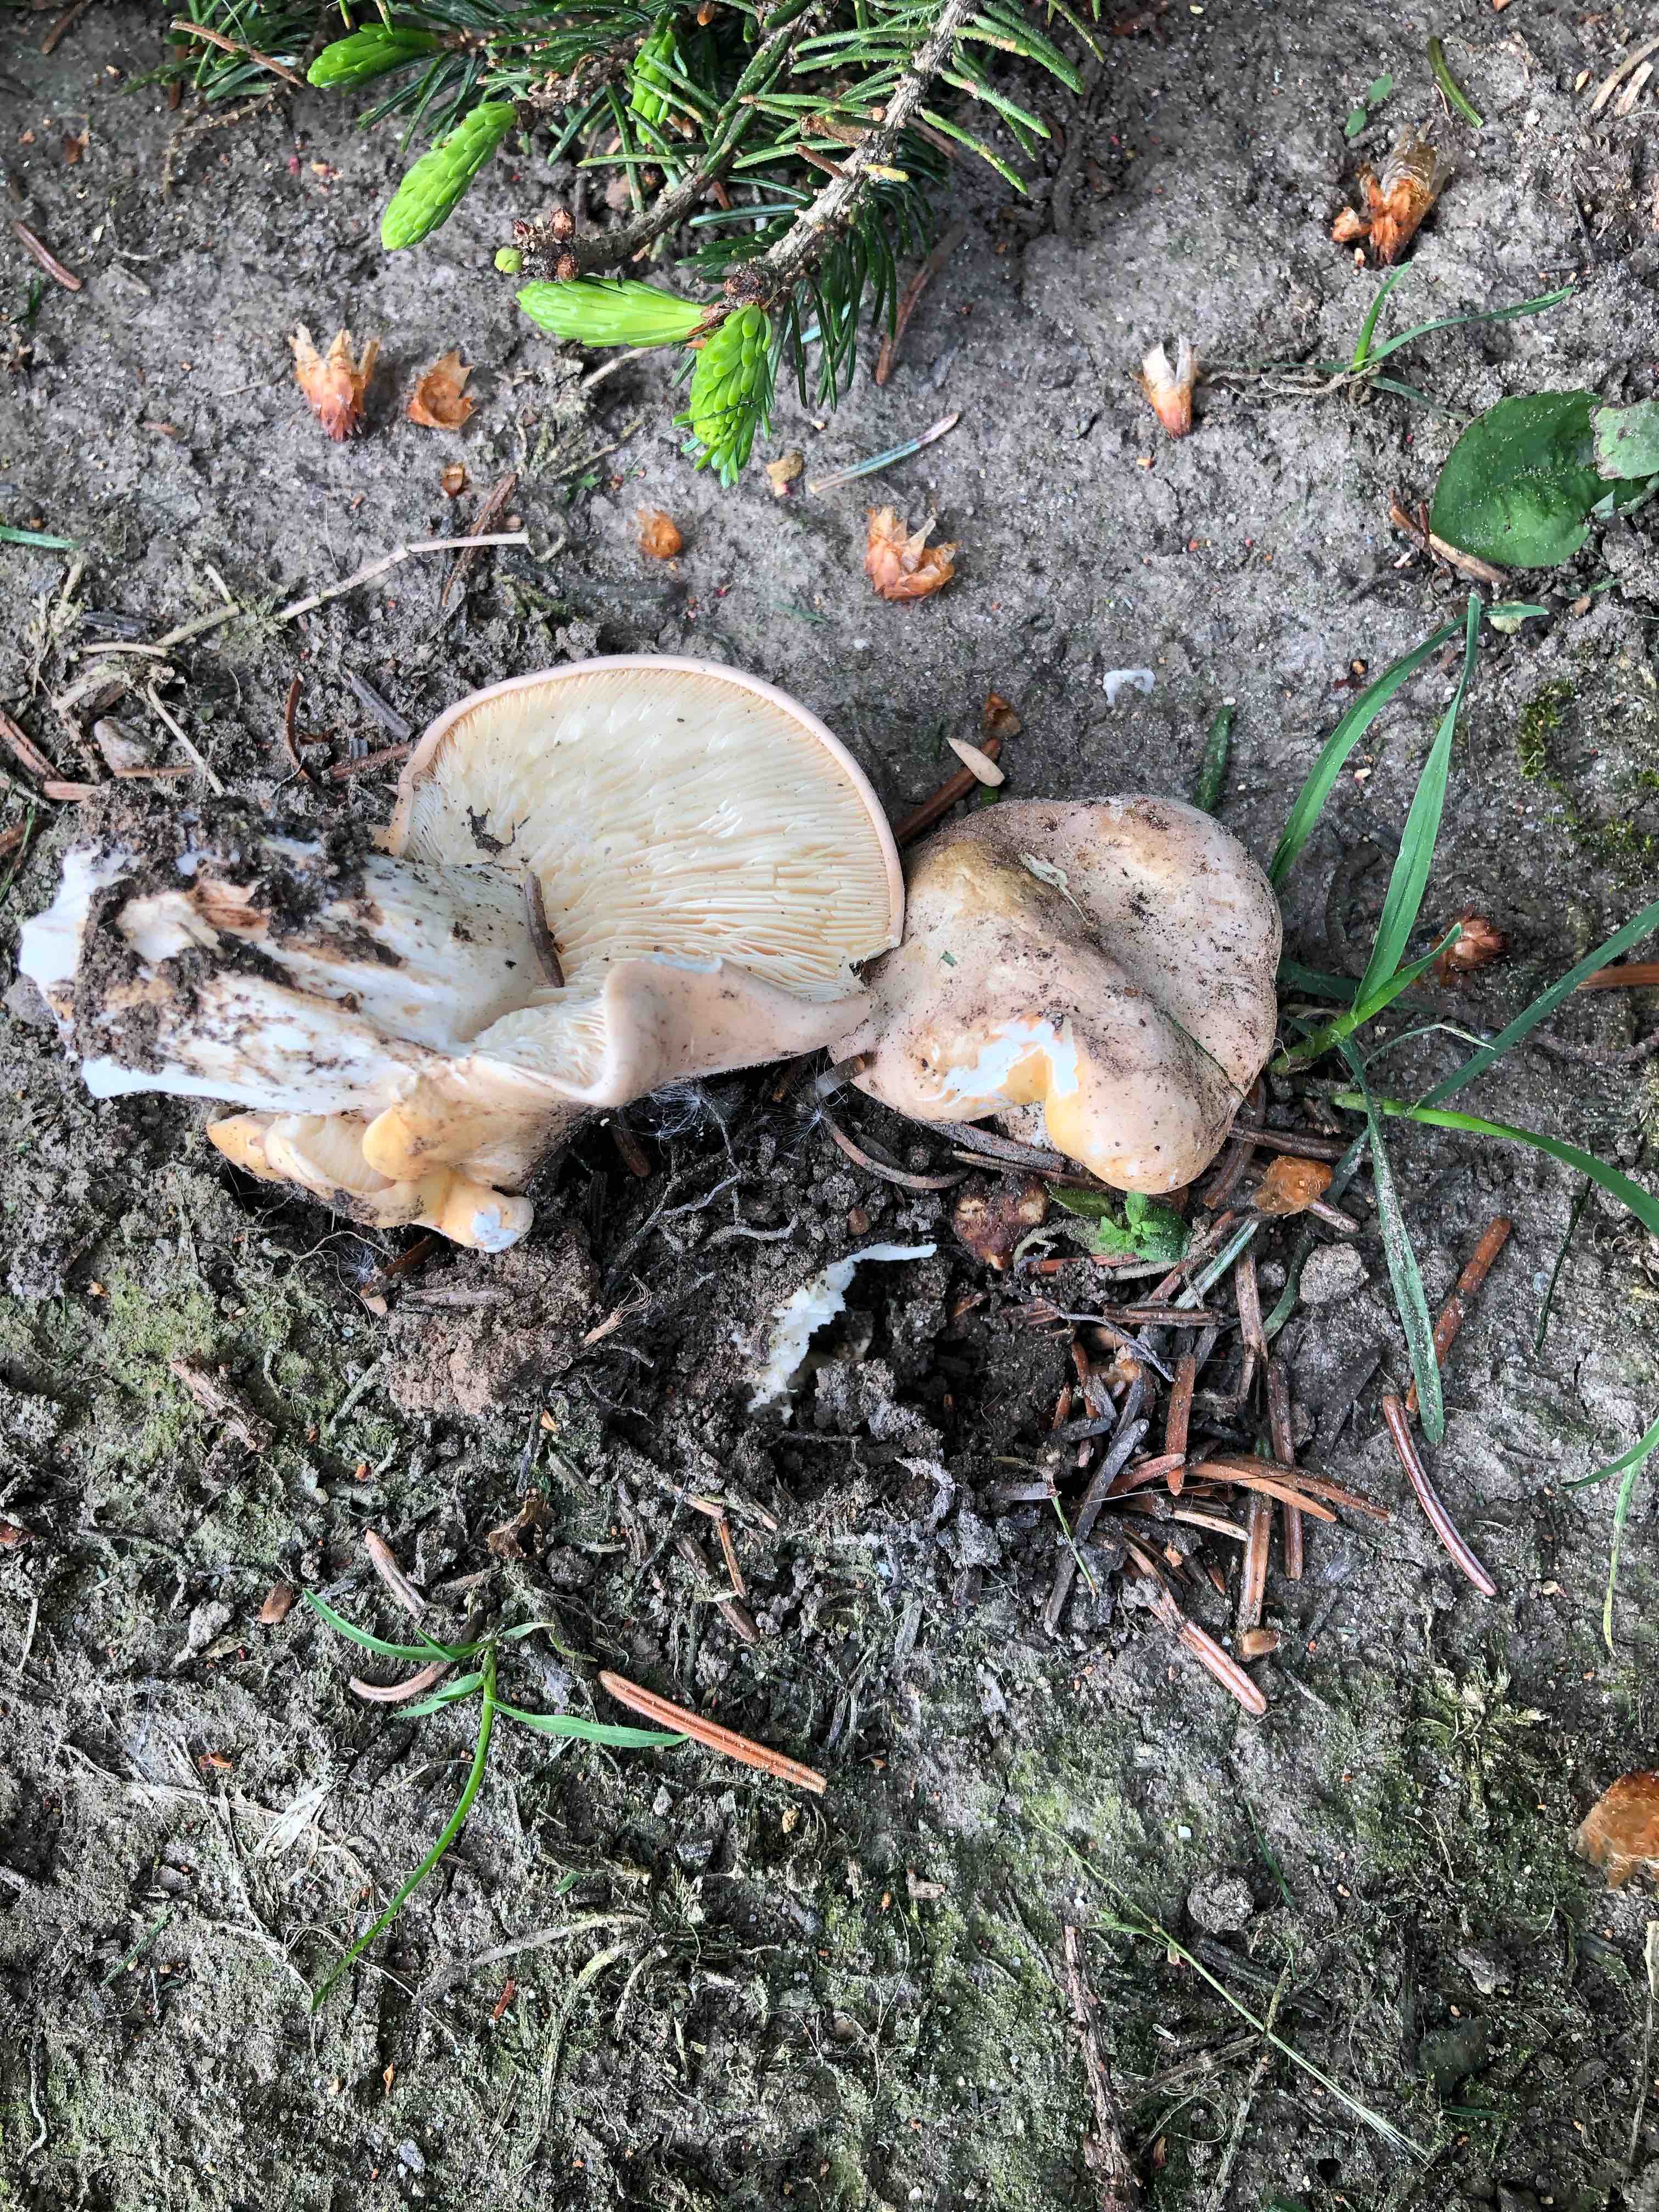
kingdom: Fungi
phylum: Basidiomycota
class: Agaricomycetes
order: Agaricales
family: Lyophyllaceae
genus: Calocybe
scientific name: Calocybe gambosa
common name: vårmusseron
